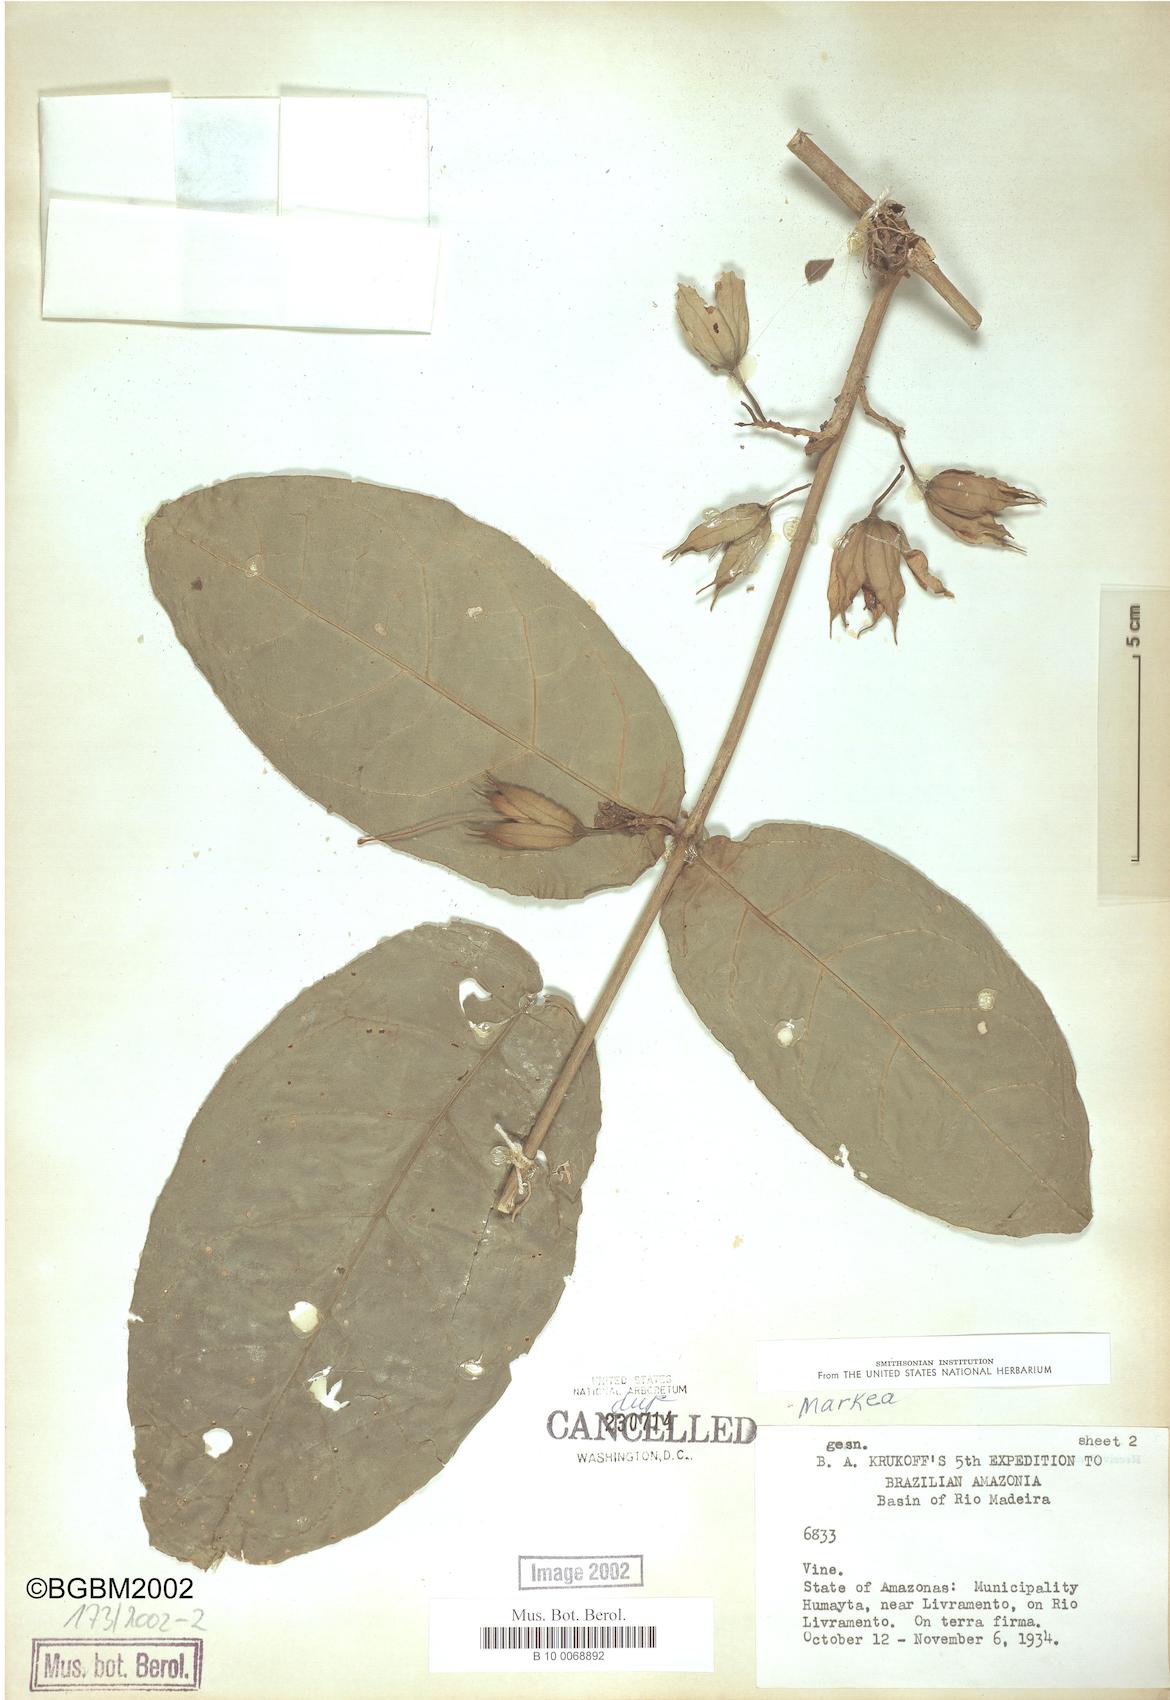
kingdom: Plantae
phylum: Tracheophyta
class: Magnoliopsida
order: Solanales
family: Solanaceae
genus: Markea
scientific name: Markea
